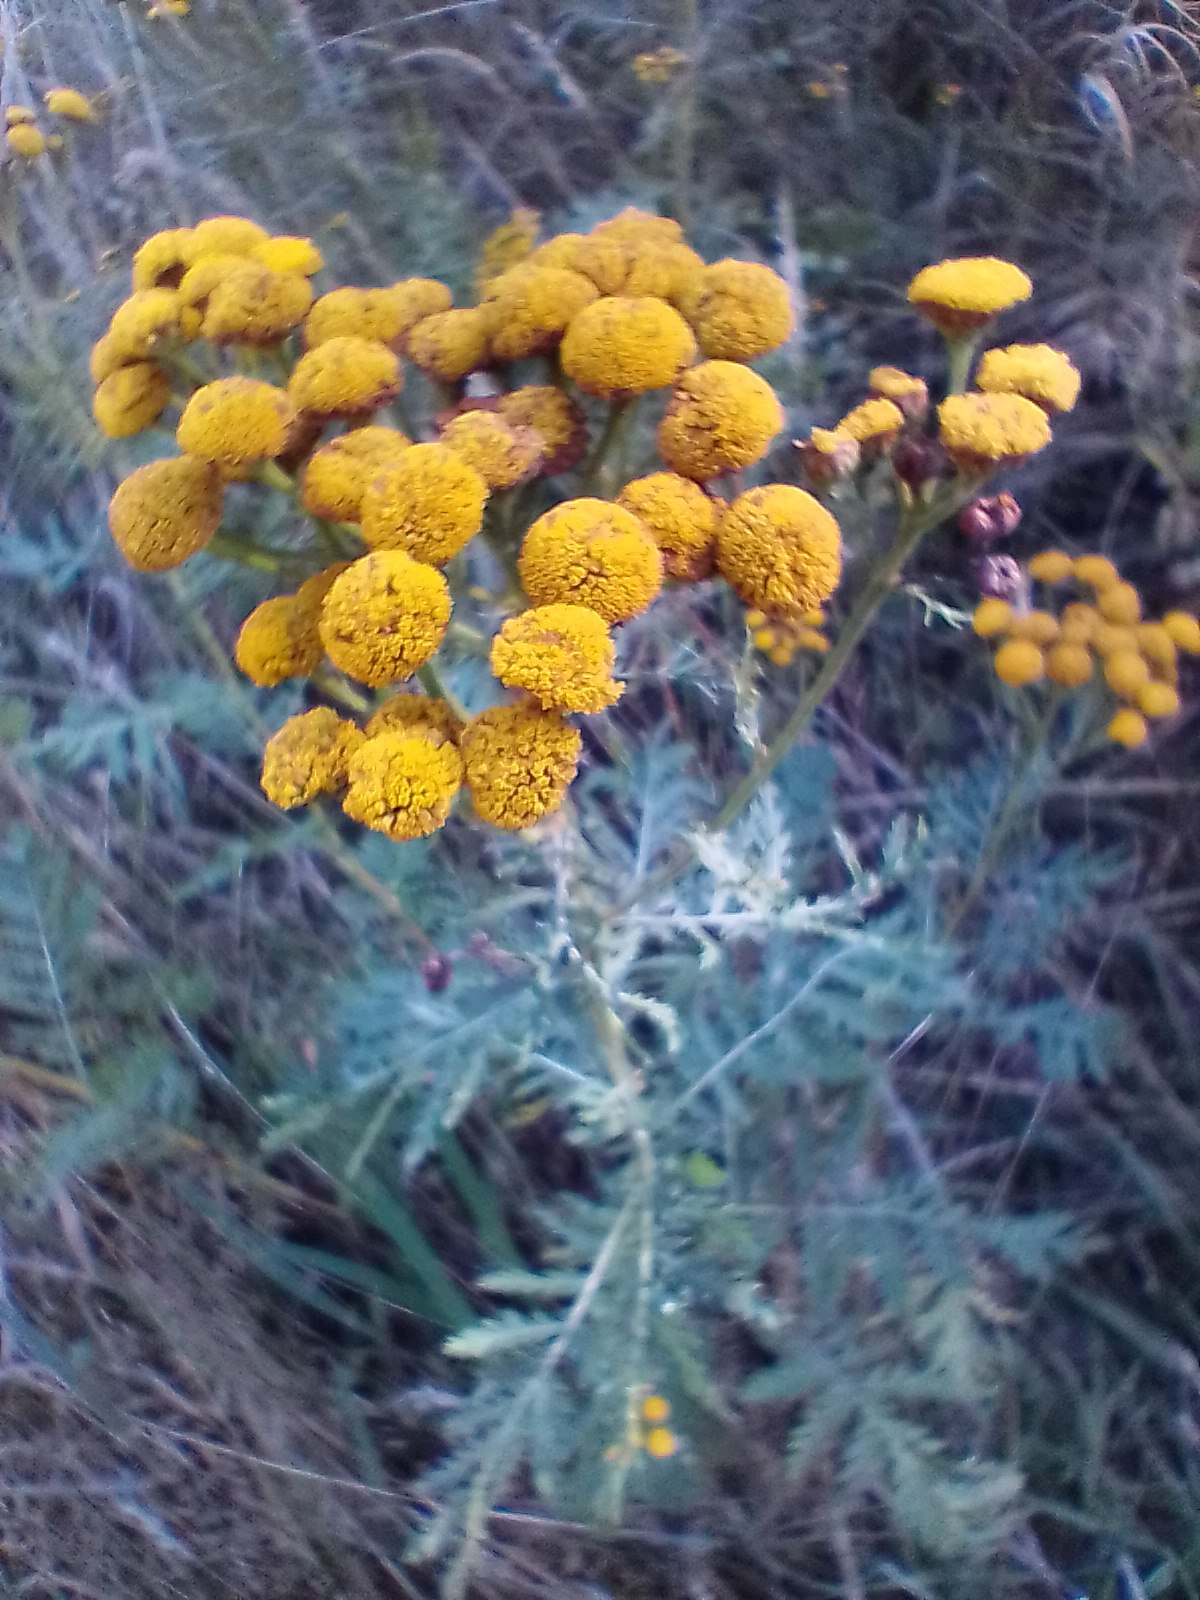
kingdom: Plantae
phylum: Tracheophyta
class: Magnoliopsida
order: Asterales
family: Asteraceae
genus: Tanacetum
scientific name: Tanacetum vulgare
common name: Rejnfan
